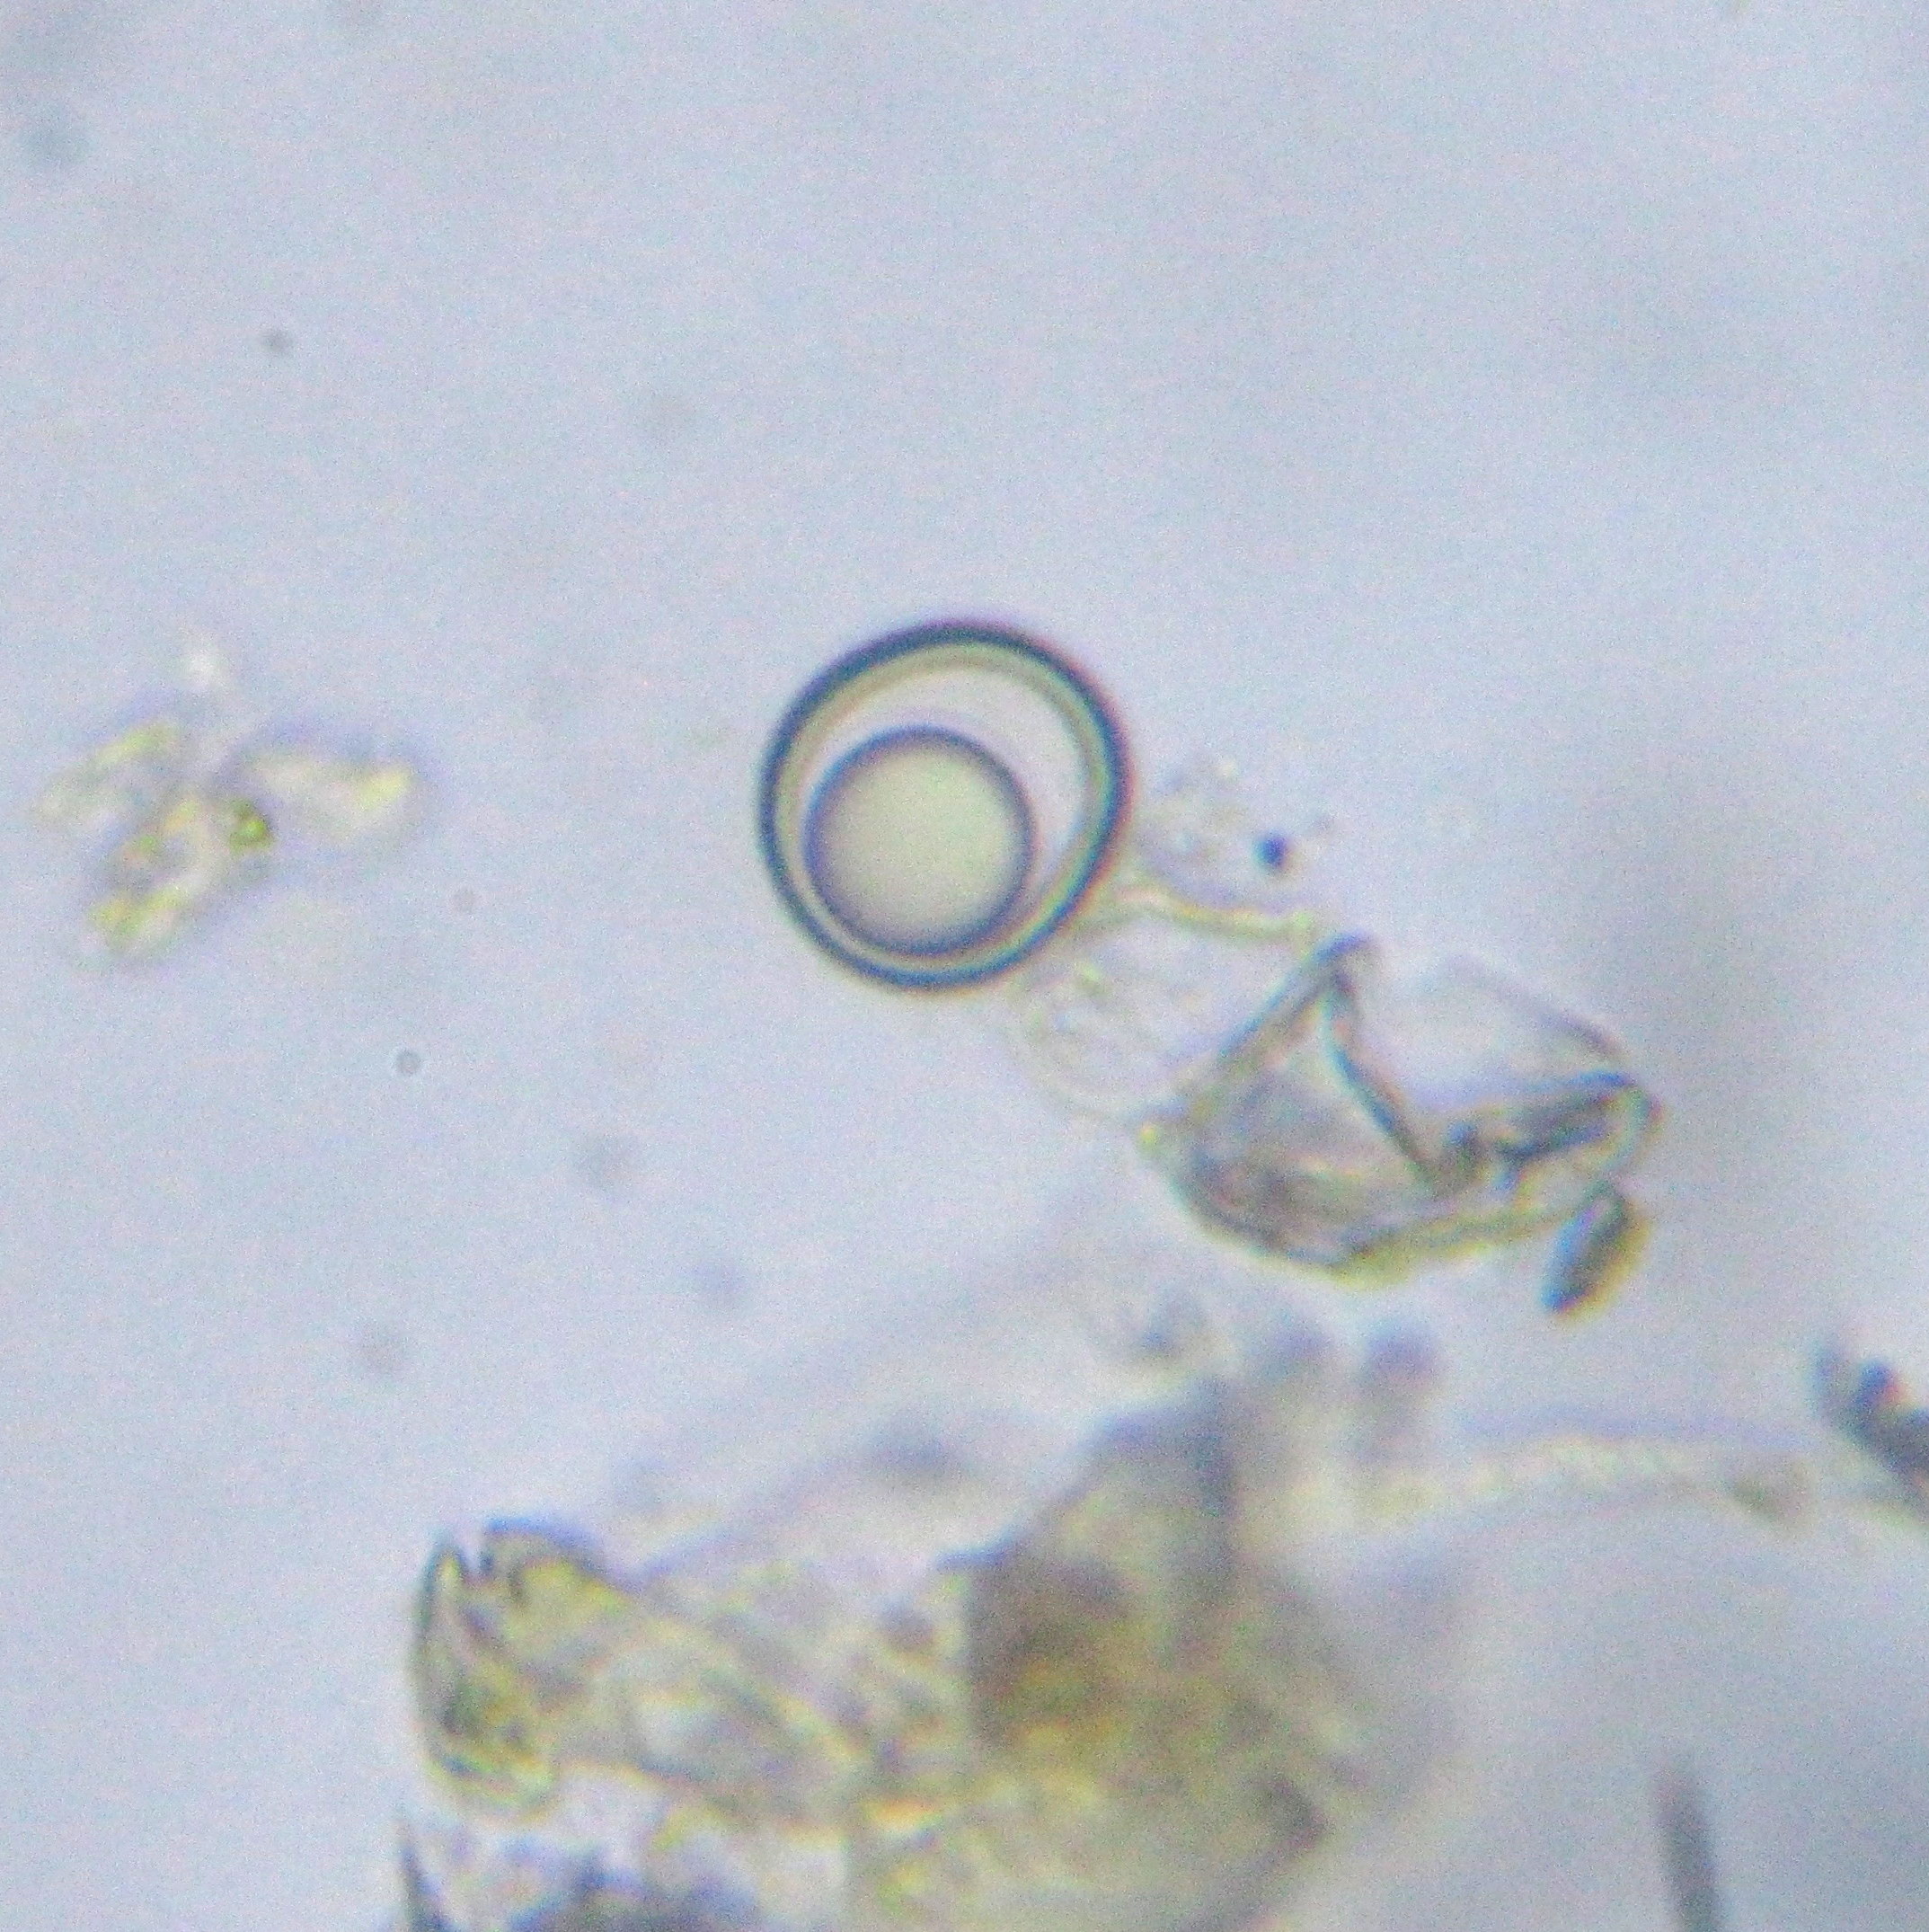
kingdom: Protozoa
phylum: Amoebozoa
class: Lobosa
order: Arcellinida
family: Nebelidae
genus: Nebela
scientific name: Nebela
